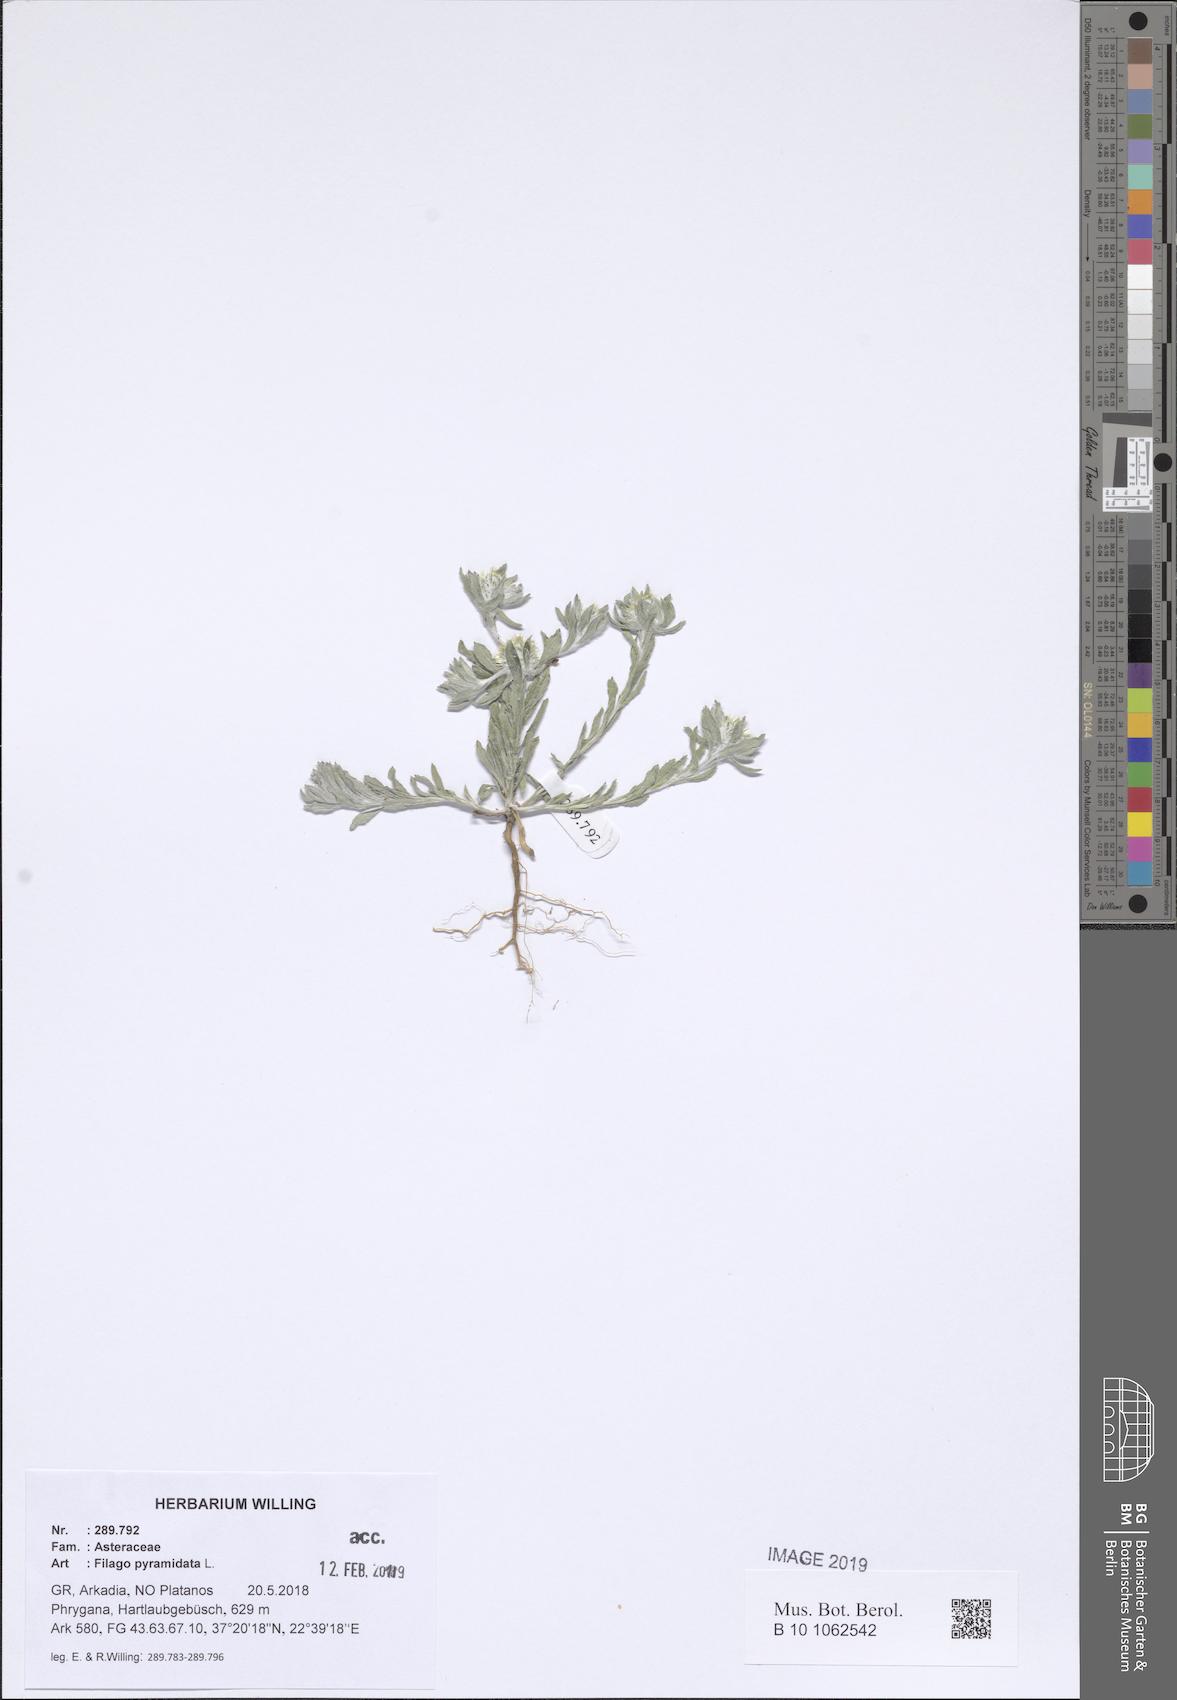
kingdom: Plantae
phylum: Tracheophyta
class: Magnoliopsida
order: Asterales
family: Asteraceae
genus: Filago
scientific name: Filago pyramidata
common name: Broad-leaved cudweed
